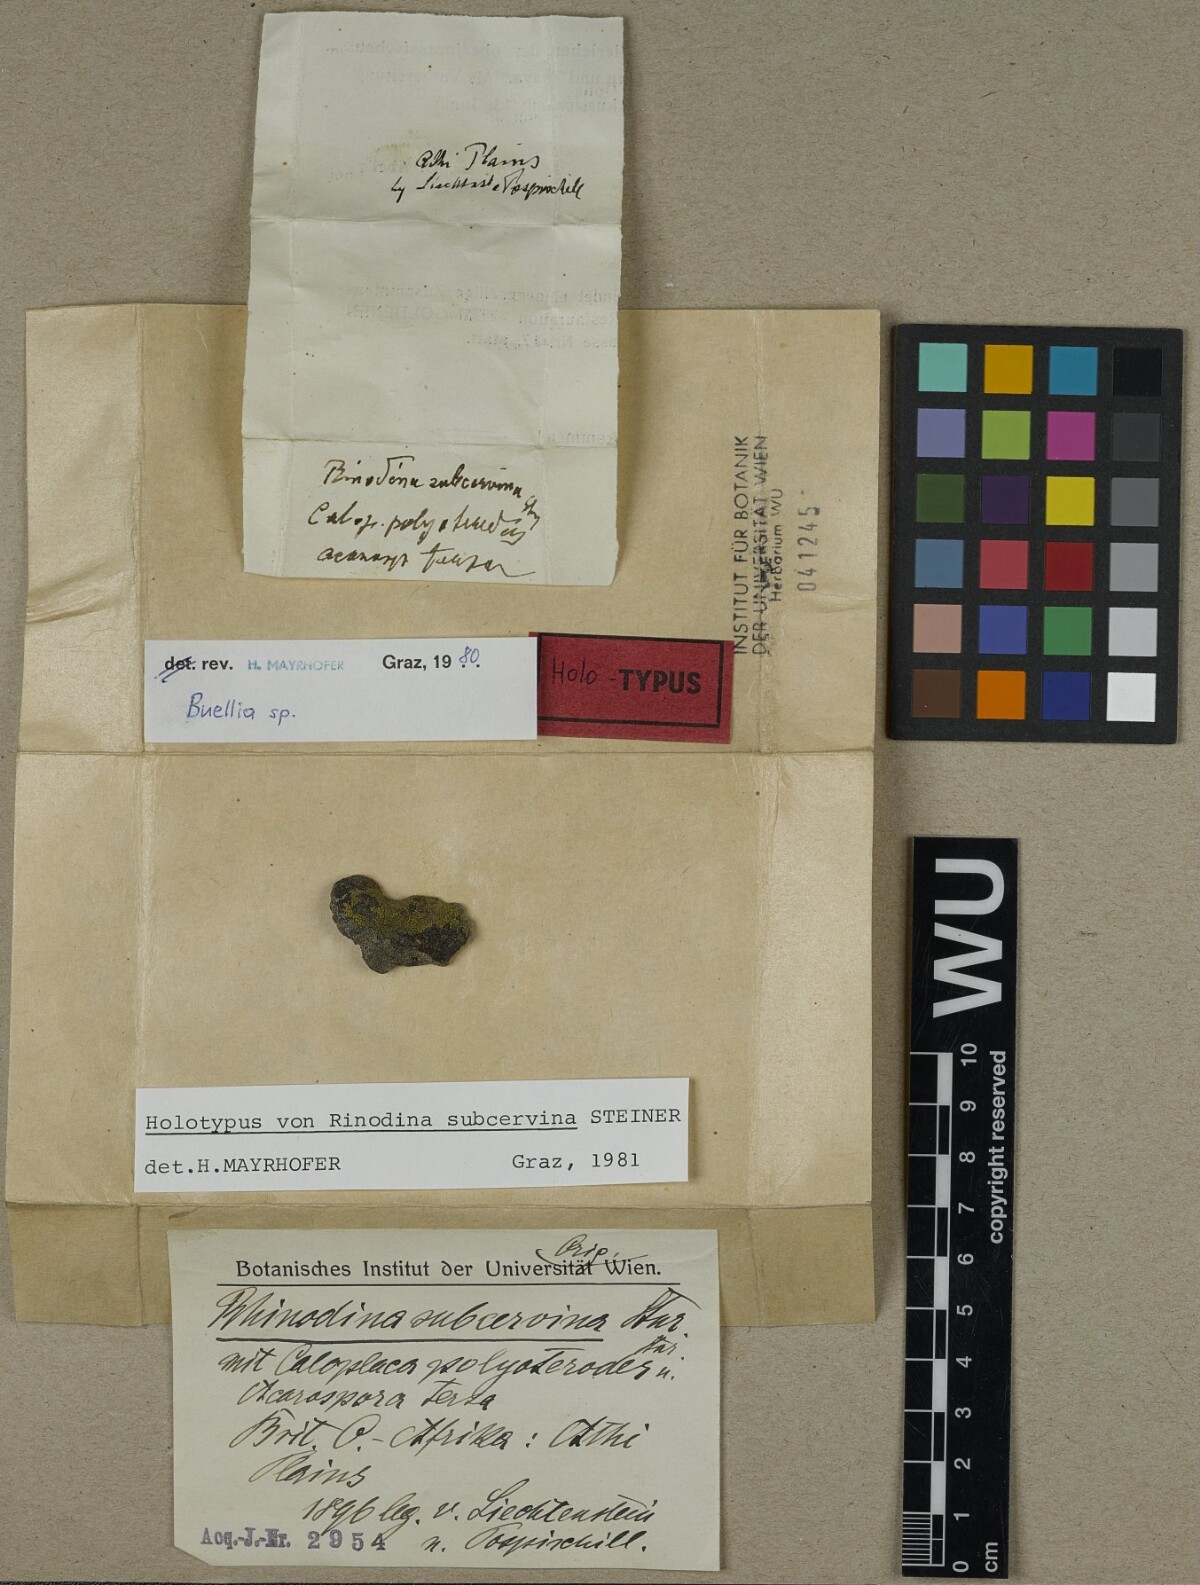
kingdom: Fungi
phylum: Ascomycota
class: Lecanoromycetes
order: Caliciales
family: Physciaceae
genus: Rinodina
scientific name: Rinodina
